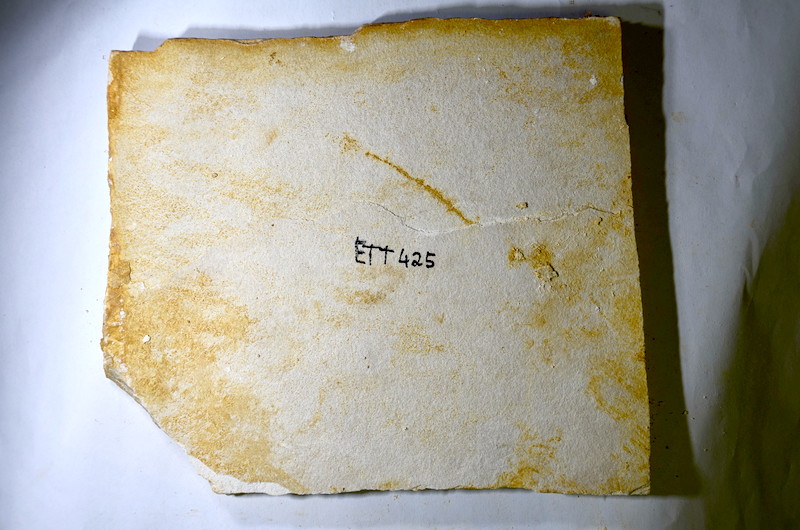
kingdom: Animalia
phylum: Chordata
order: Salmoniformes
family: Orthogonikleithridae
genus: Orthogonikleithrus
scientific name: Orthogonikleithrus hoelli
